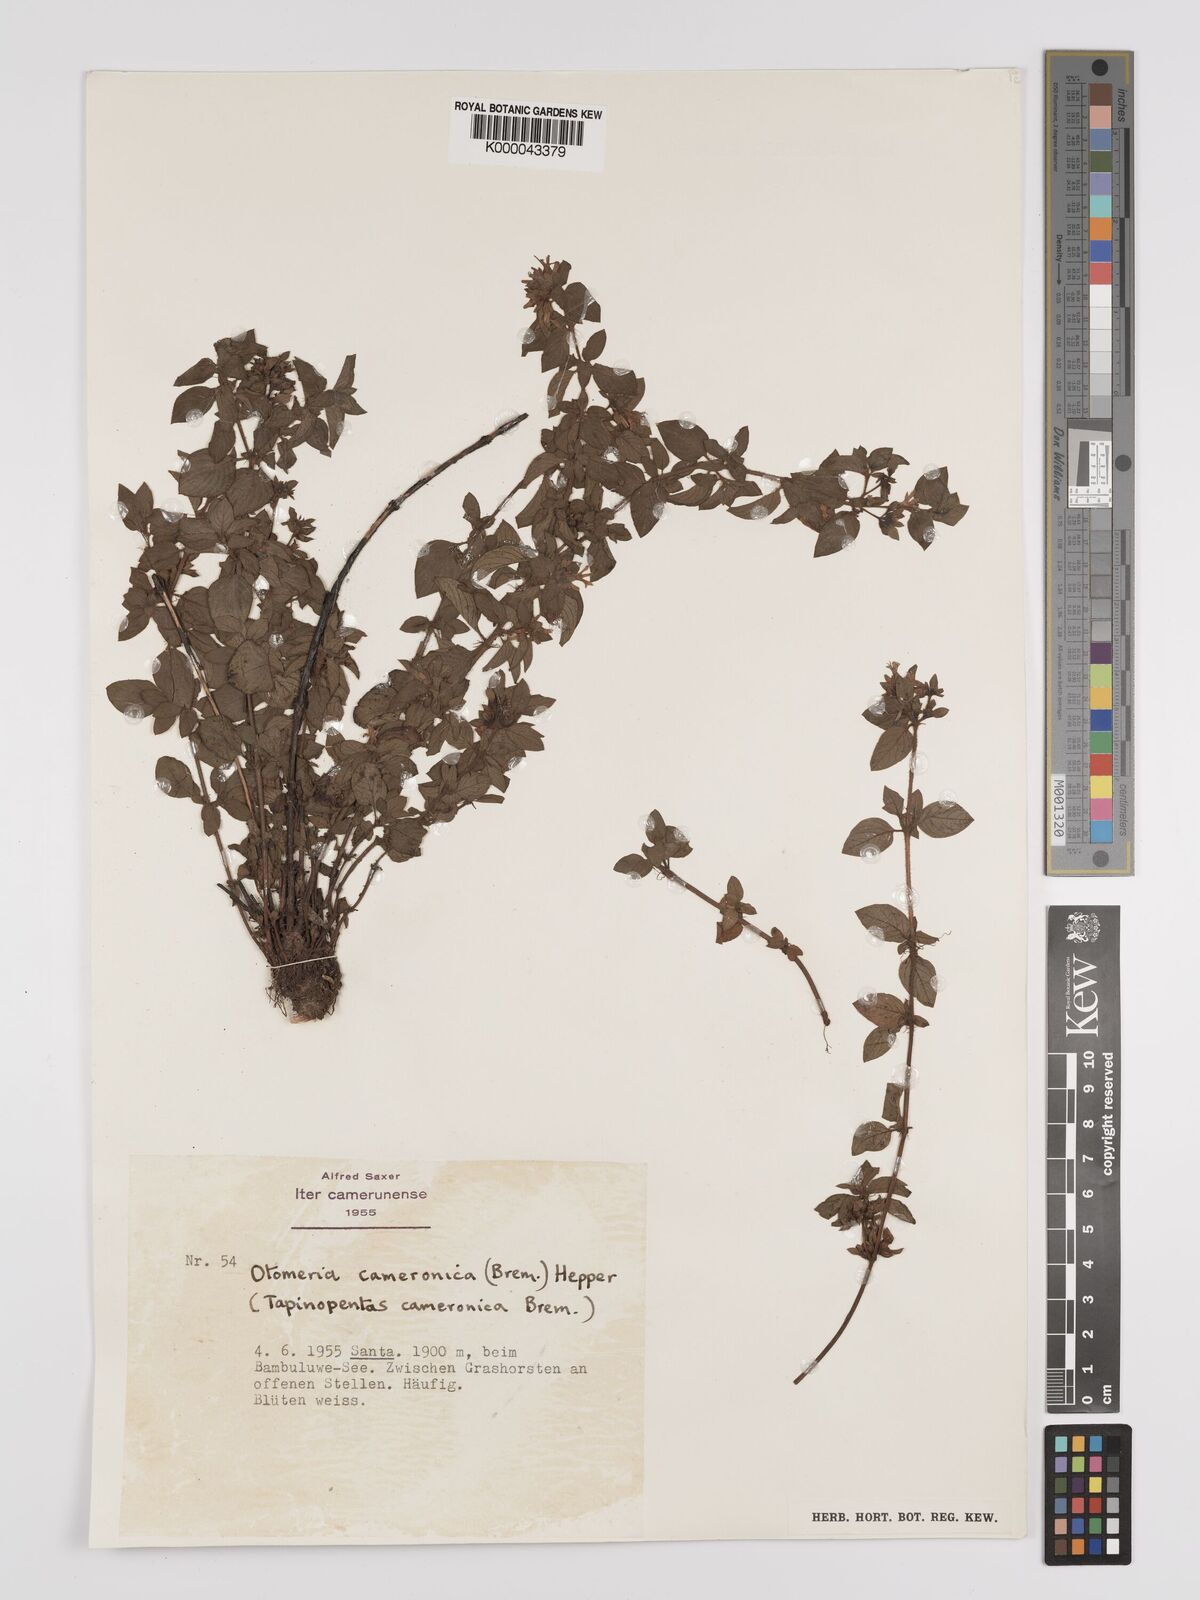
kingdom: Plantae
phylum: Tracheophyta
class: Magnoliopsida
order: Gentianales
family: Rubiaceae
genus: Otomeria
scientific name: Otomeria cameronica
